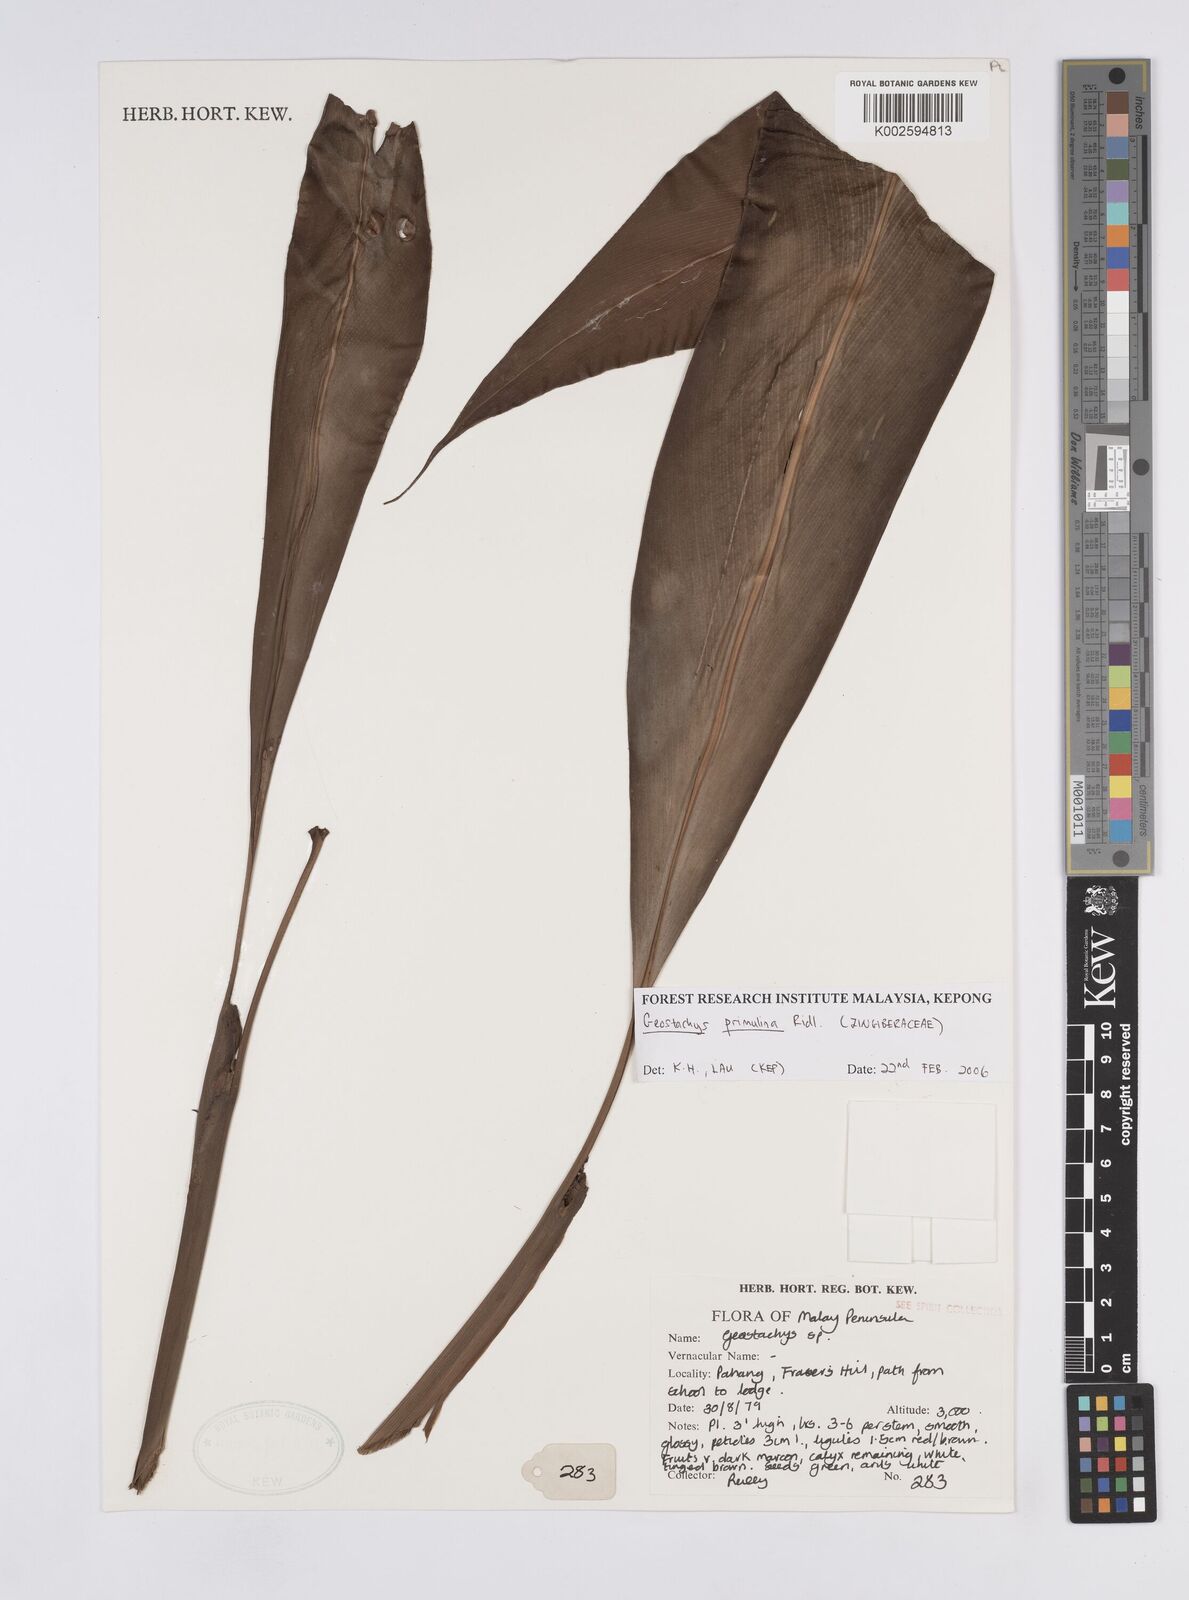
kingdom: Plantae
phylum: Tracheophyta
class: Liliopsida
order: Zingiberales
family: Zingiberaceae
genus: Geostachys
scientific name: Geostachys primulina
